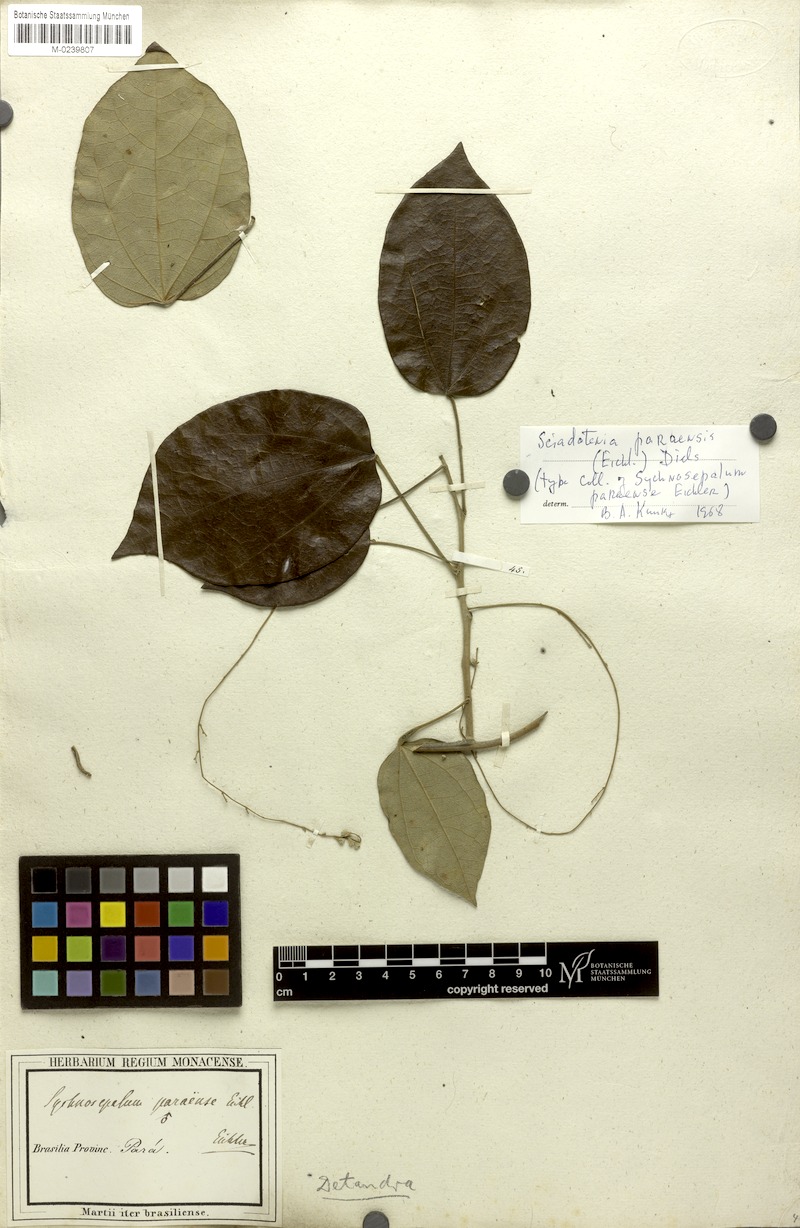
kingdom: Plantae
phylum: Tracheophyta
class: Magnoliopsida
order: Ranunculales
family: Menispermaceae
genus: Sciadotenia
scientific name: Sciadotenia paraensis
